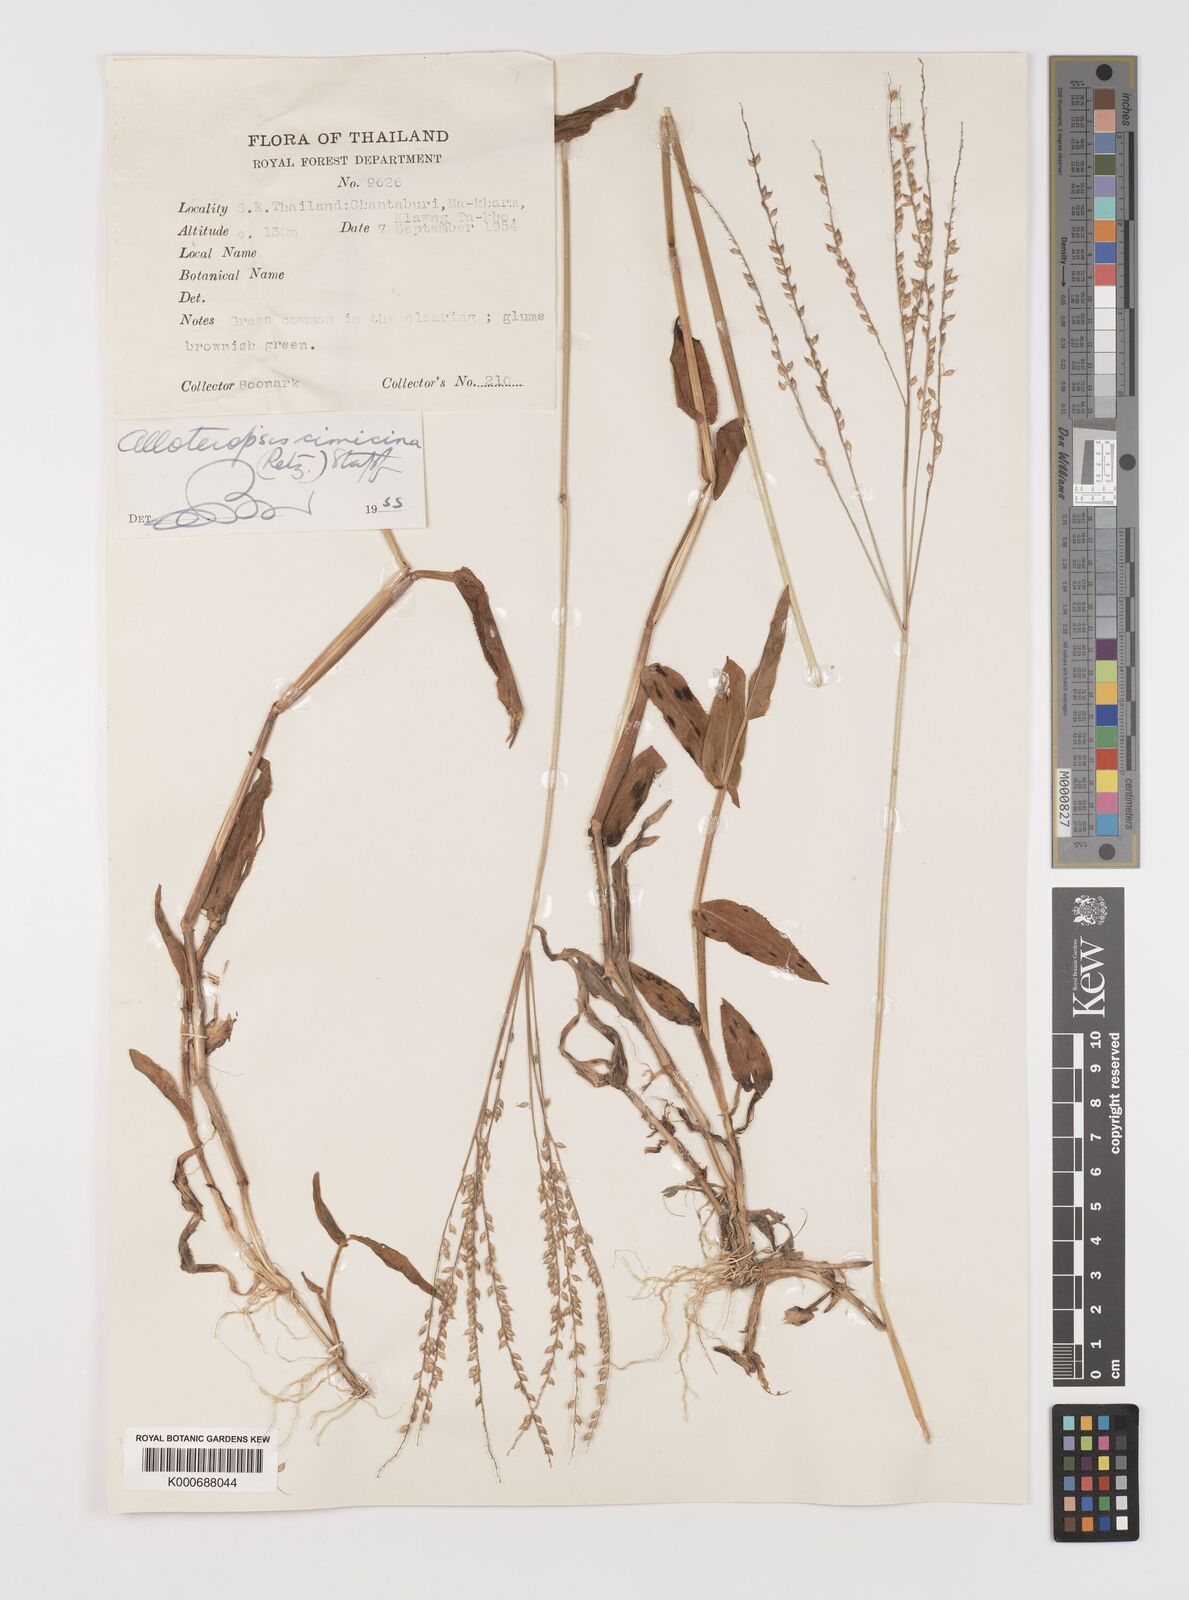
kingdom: Plantae
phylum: Tracheophyta
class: Liliopsida
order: Poales
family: Poaceae
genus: Alloteropsis
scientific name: Alloteropsis cimicina
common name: Summergrass
